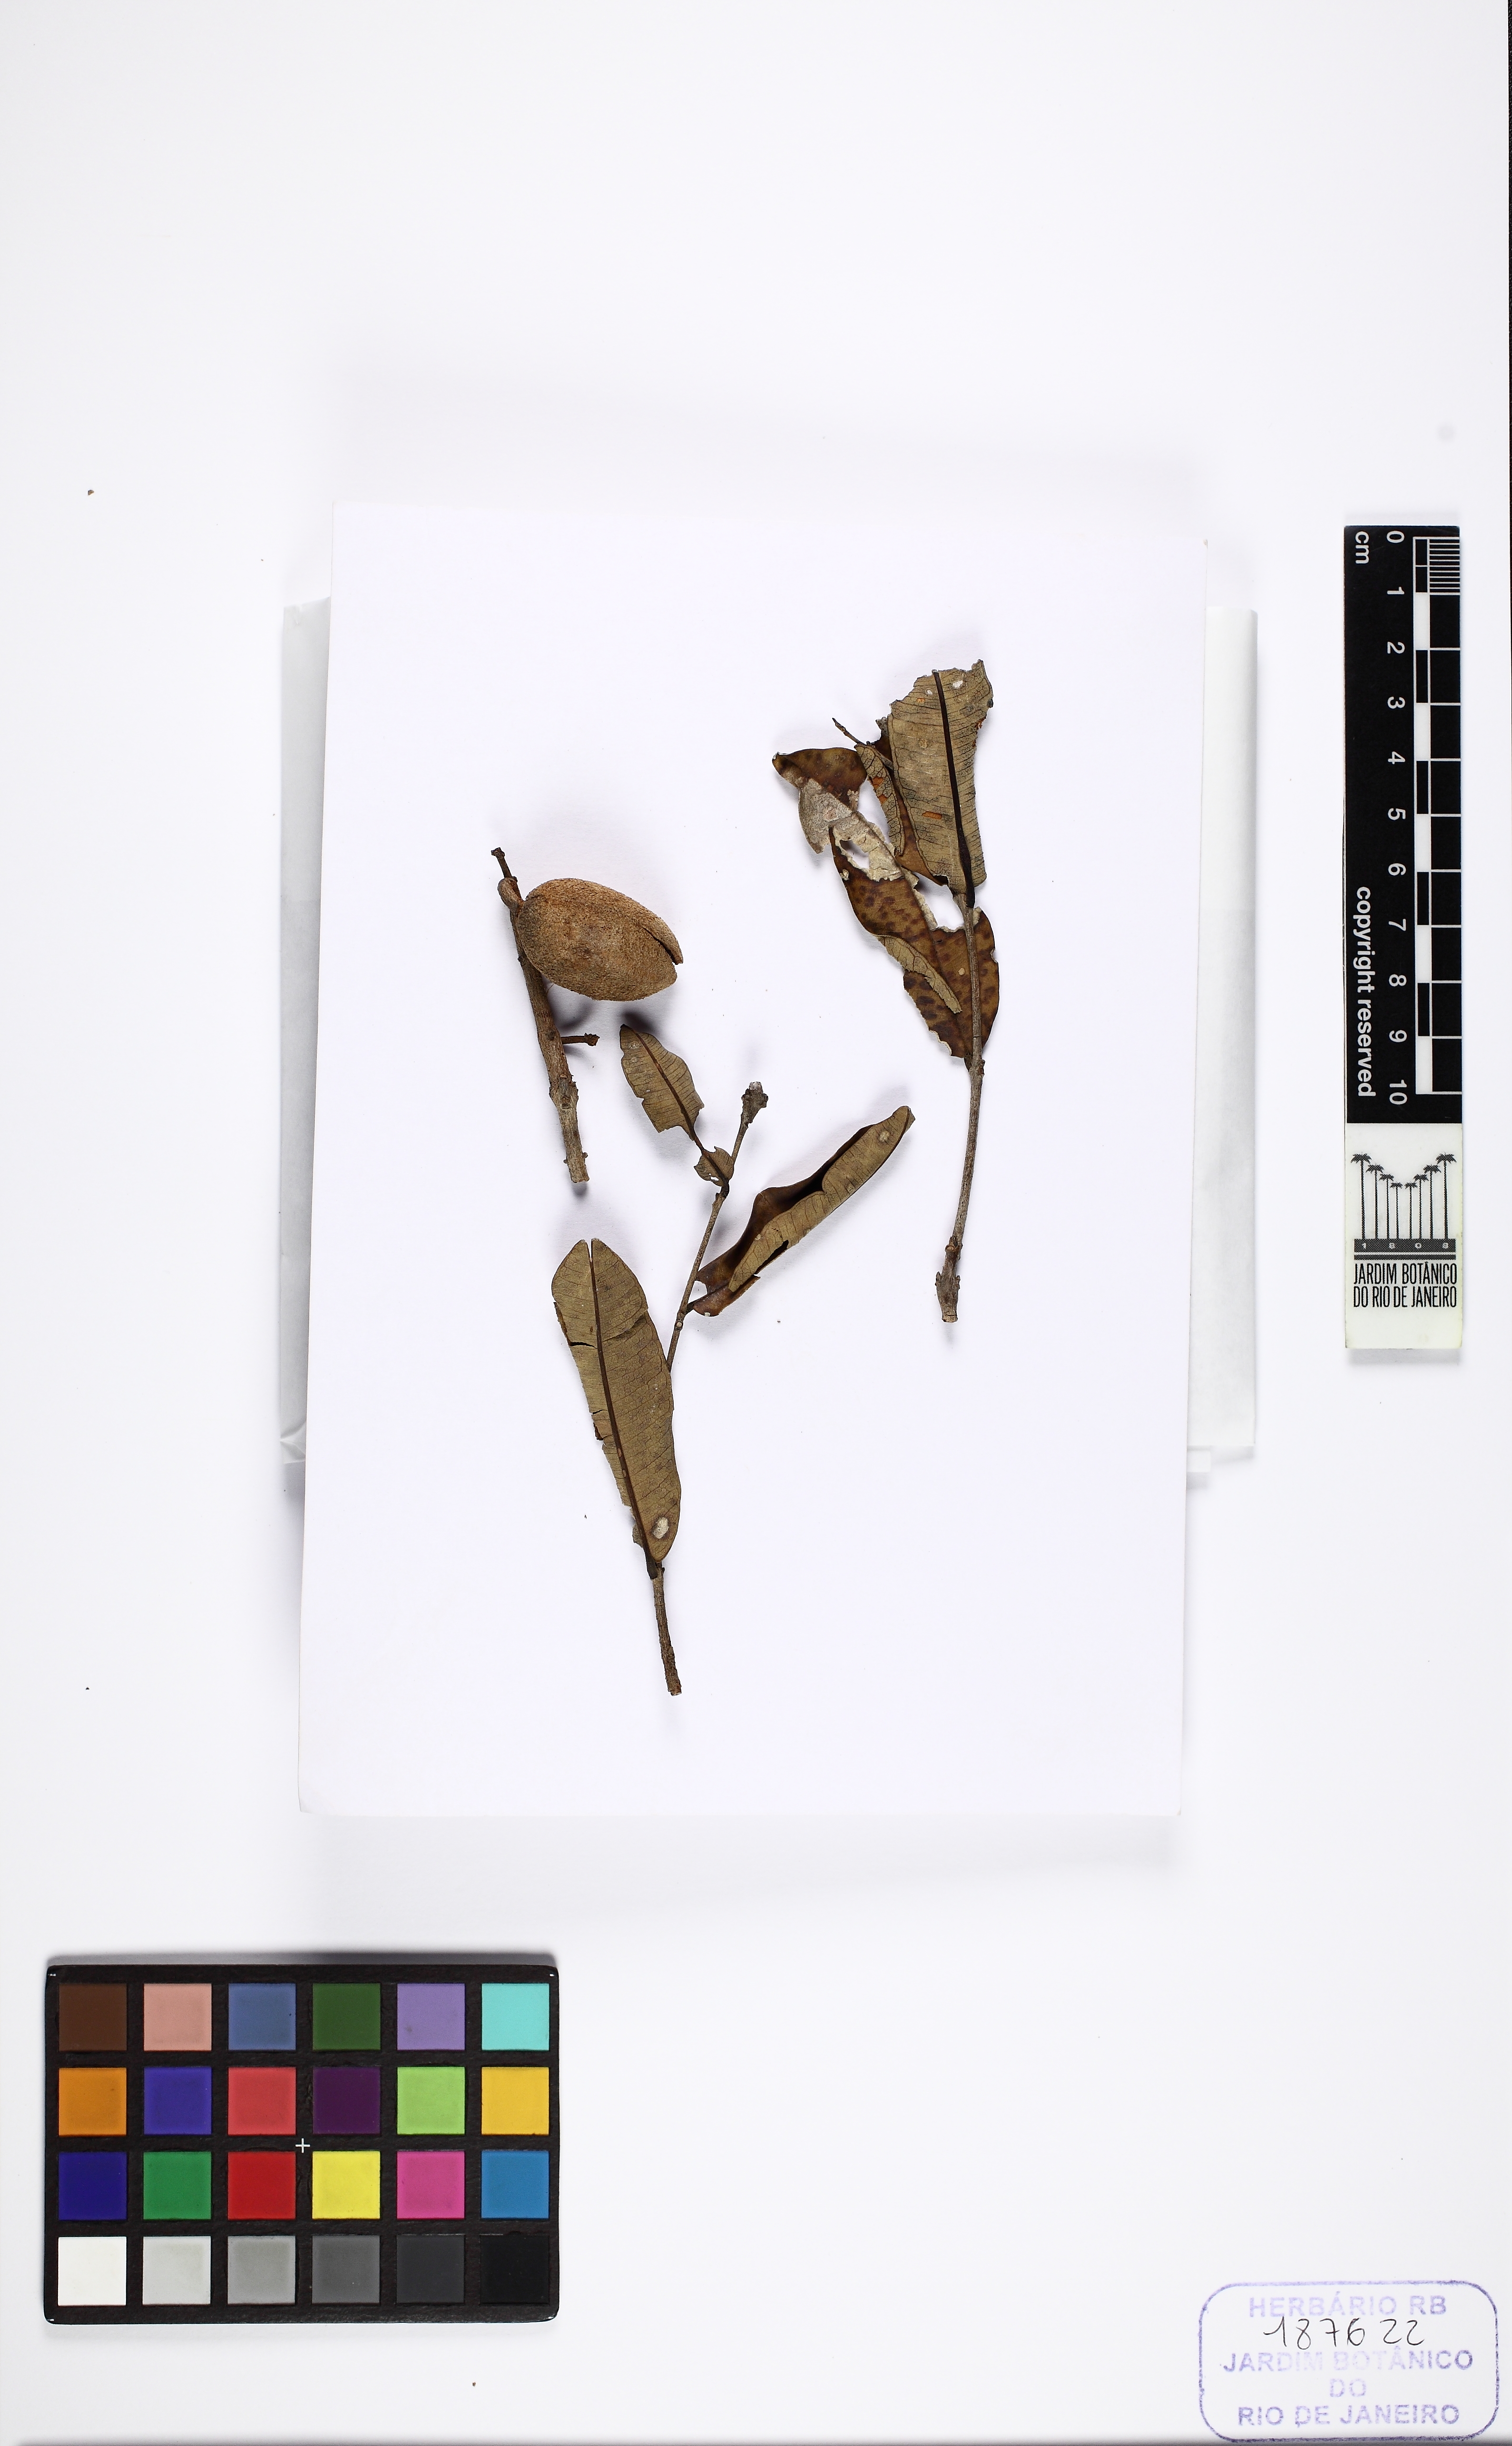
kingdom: Plantae
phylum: Tracheophyta
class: Magnoliopsida
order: Myrtales
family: Vochysiaceae
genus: Qualea
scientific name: Qualea parviflora
